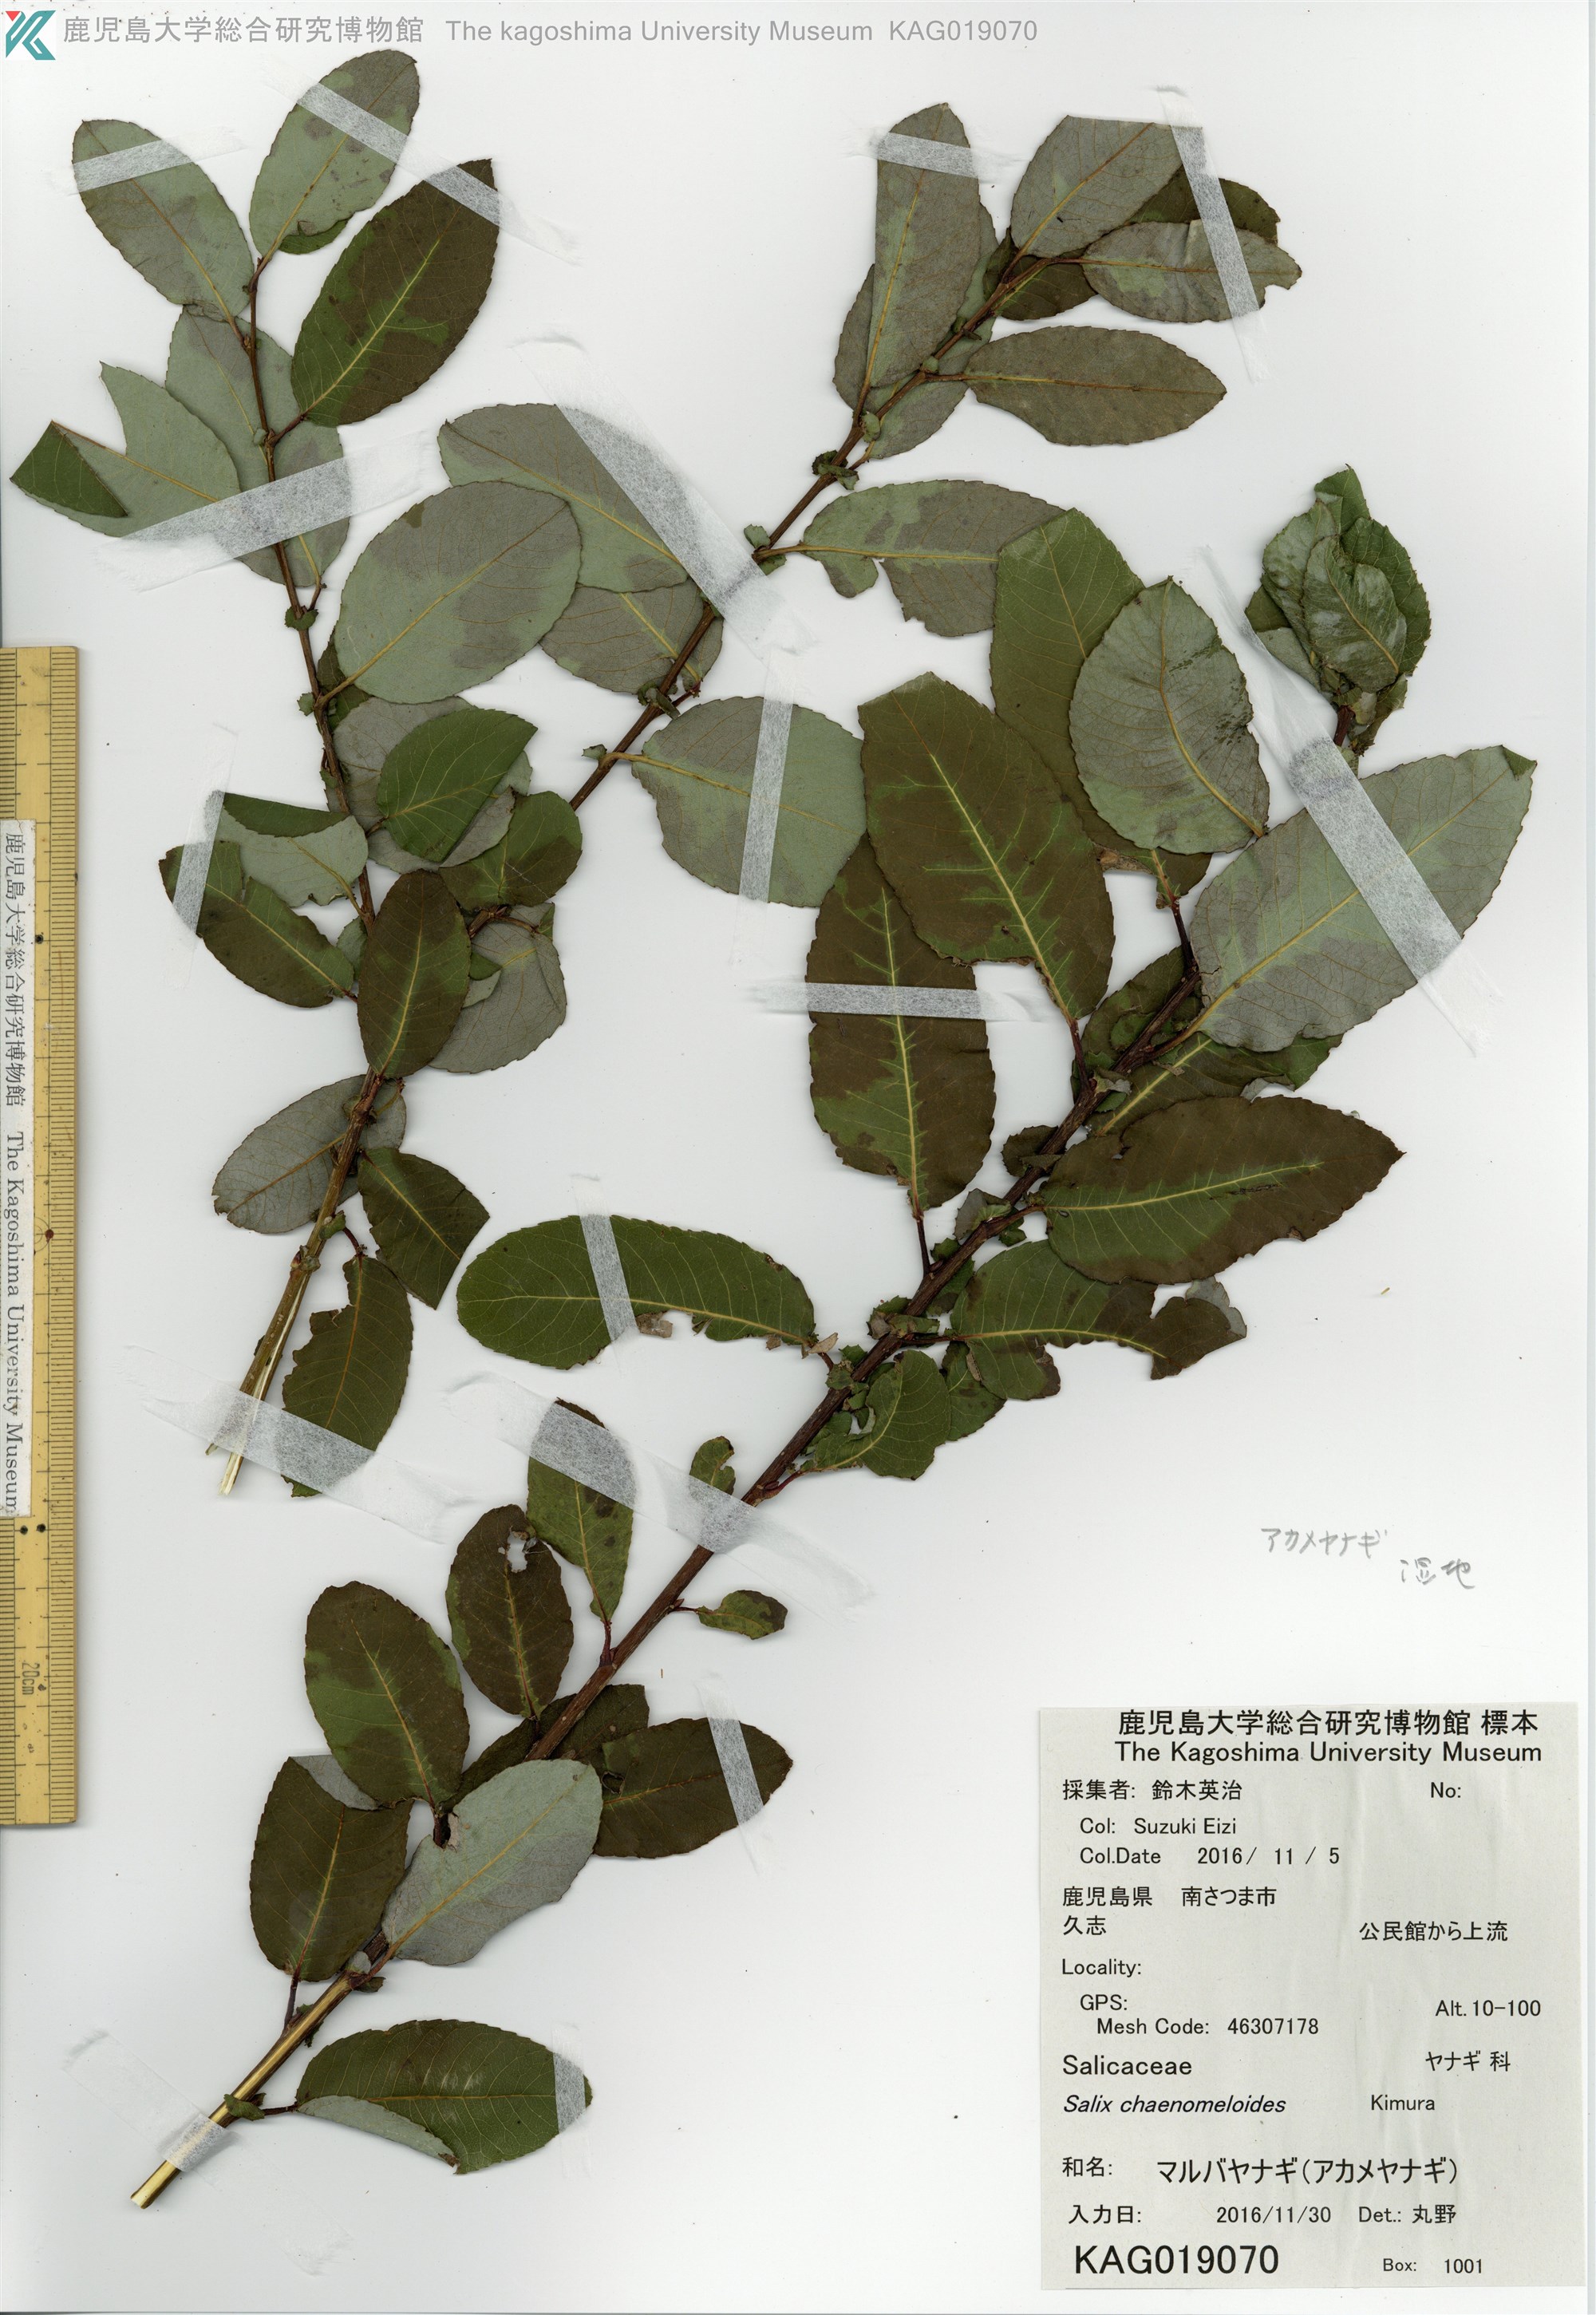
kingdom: Plantae
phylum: Tracheophyta
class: Magnoliopsida
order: Malpighiales
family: Salicaceae
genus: Salix
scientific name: Salix chaenomeloides
